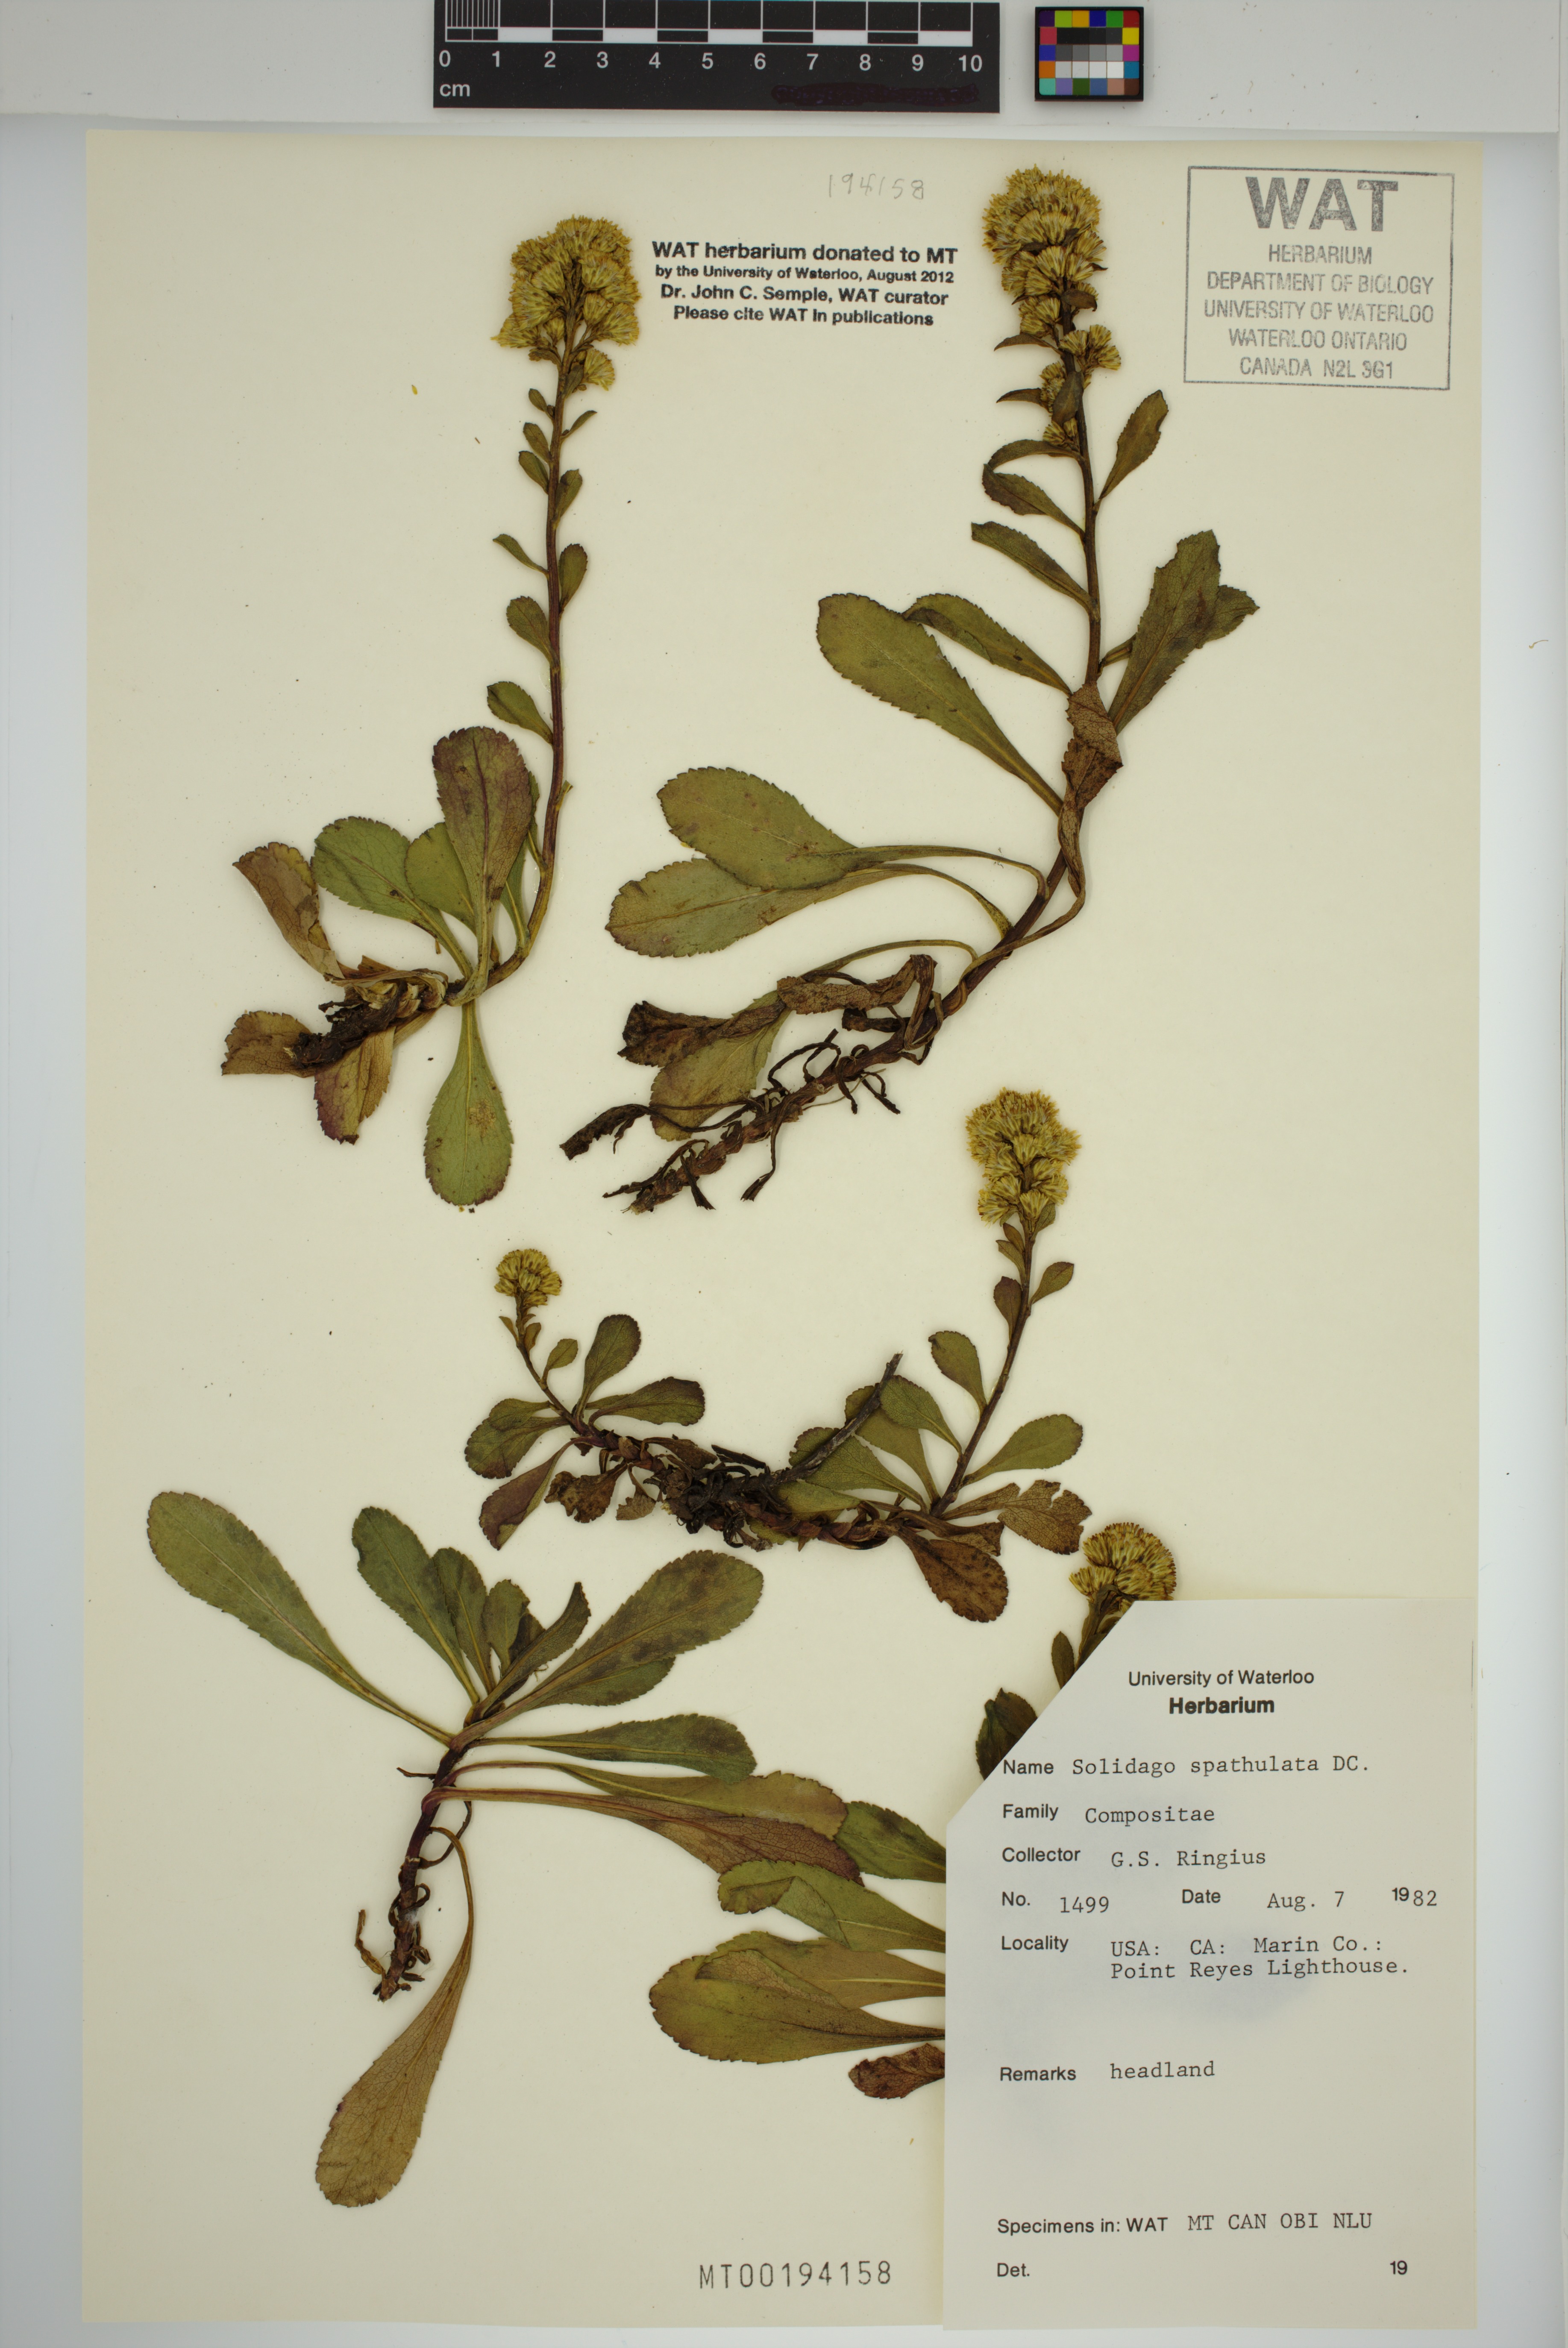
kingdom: Plantae
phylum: Tracheophyta
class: Magnoliopsida
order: Asterales
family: Asteraceae
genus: Solidago
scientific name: Solidago spathulata
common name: Coast goldenrod
